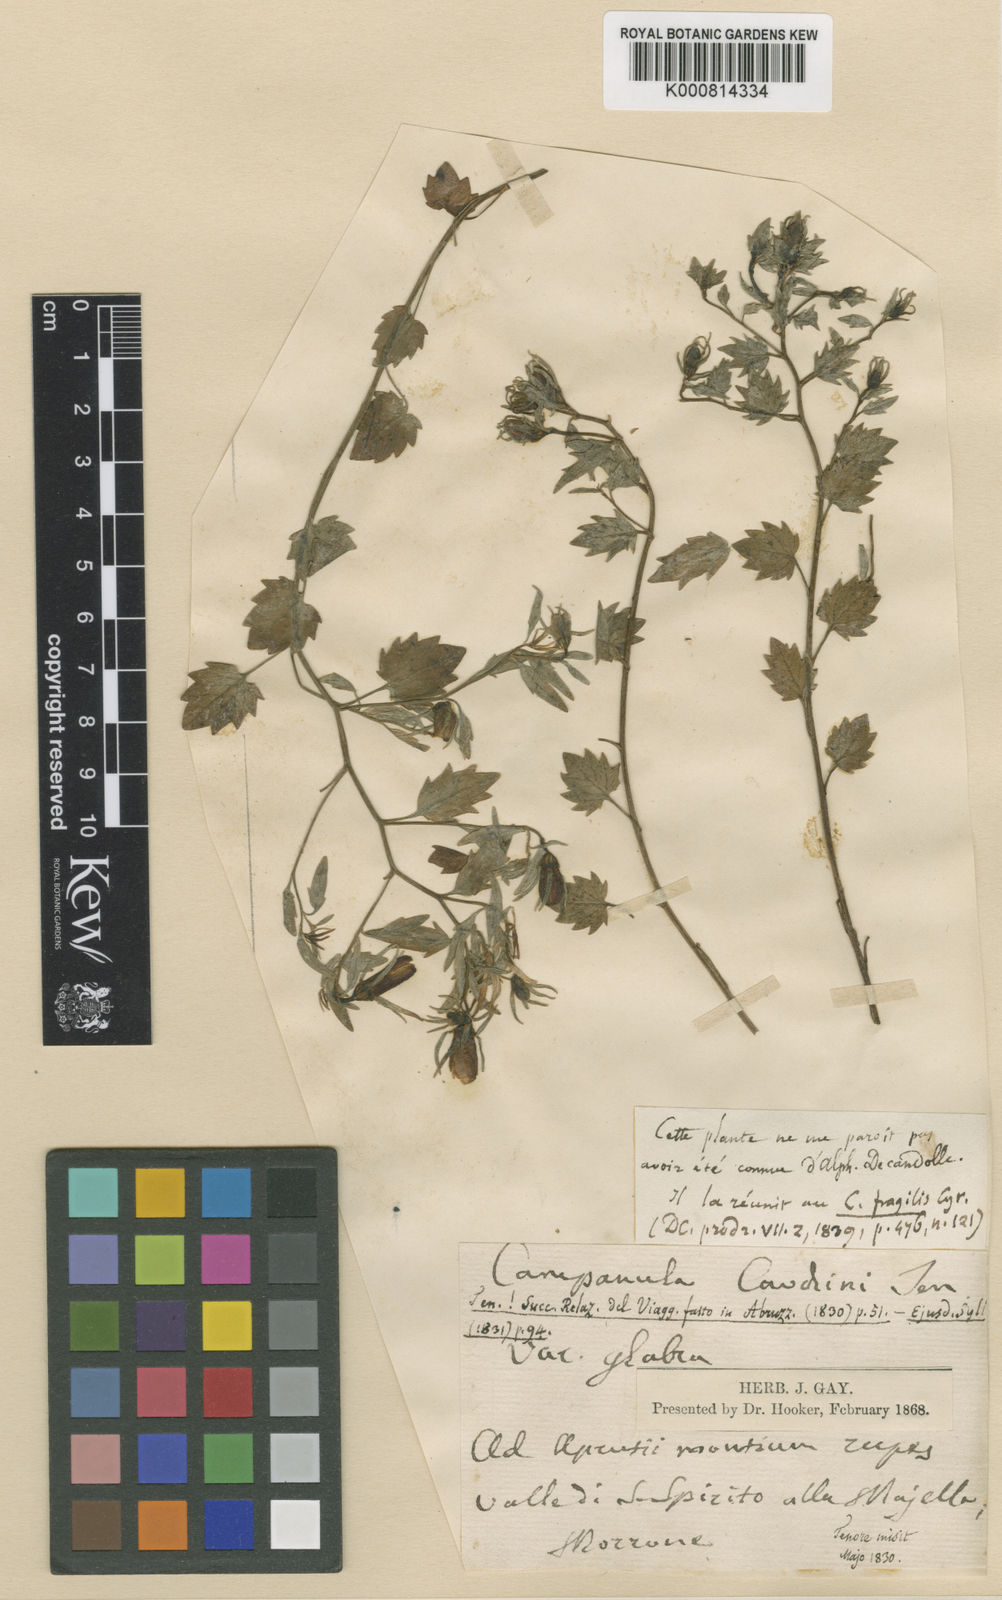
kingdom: Plantae
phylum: Tracheophyta
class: Magnoliopsida
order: Asterales
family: Campanulaceae
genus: Campanula
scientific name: Campanula fragilis
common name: Italian bellflower
